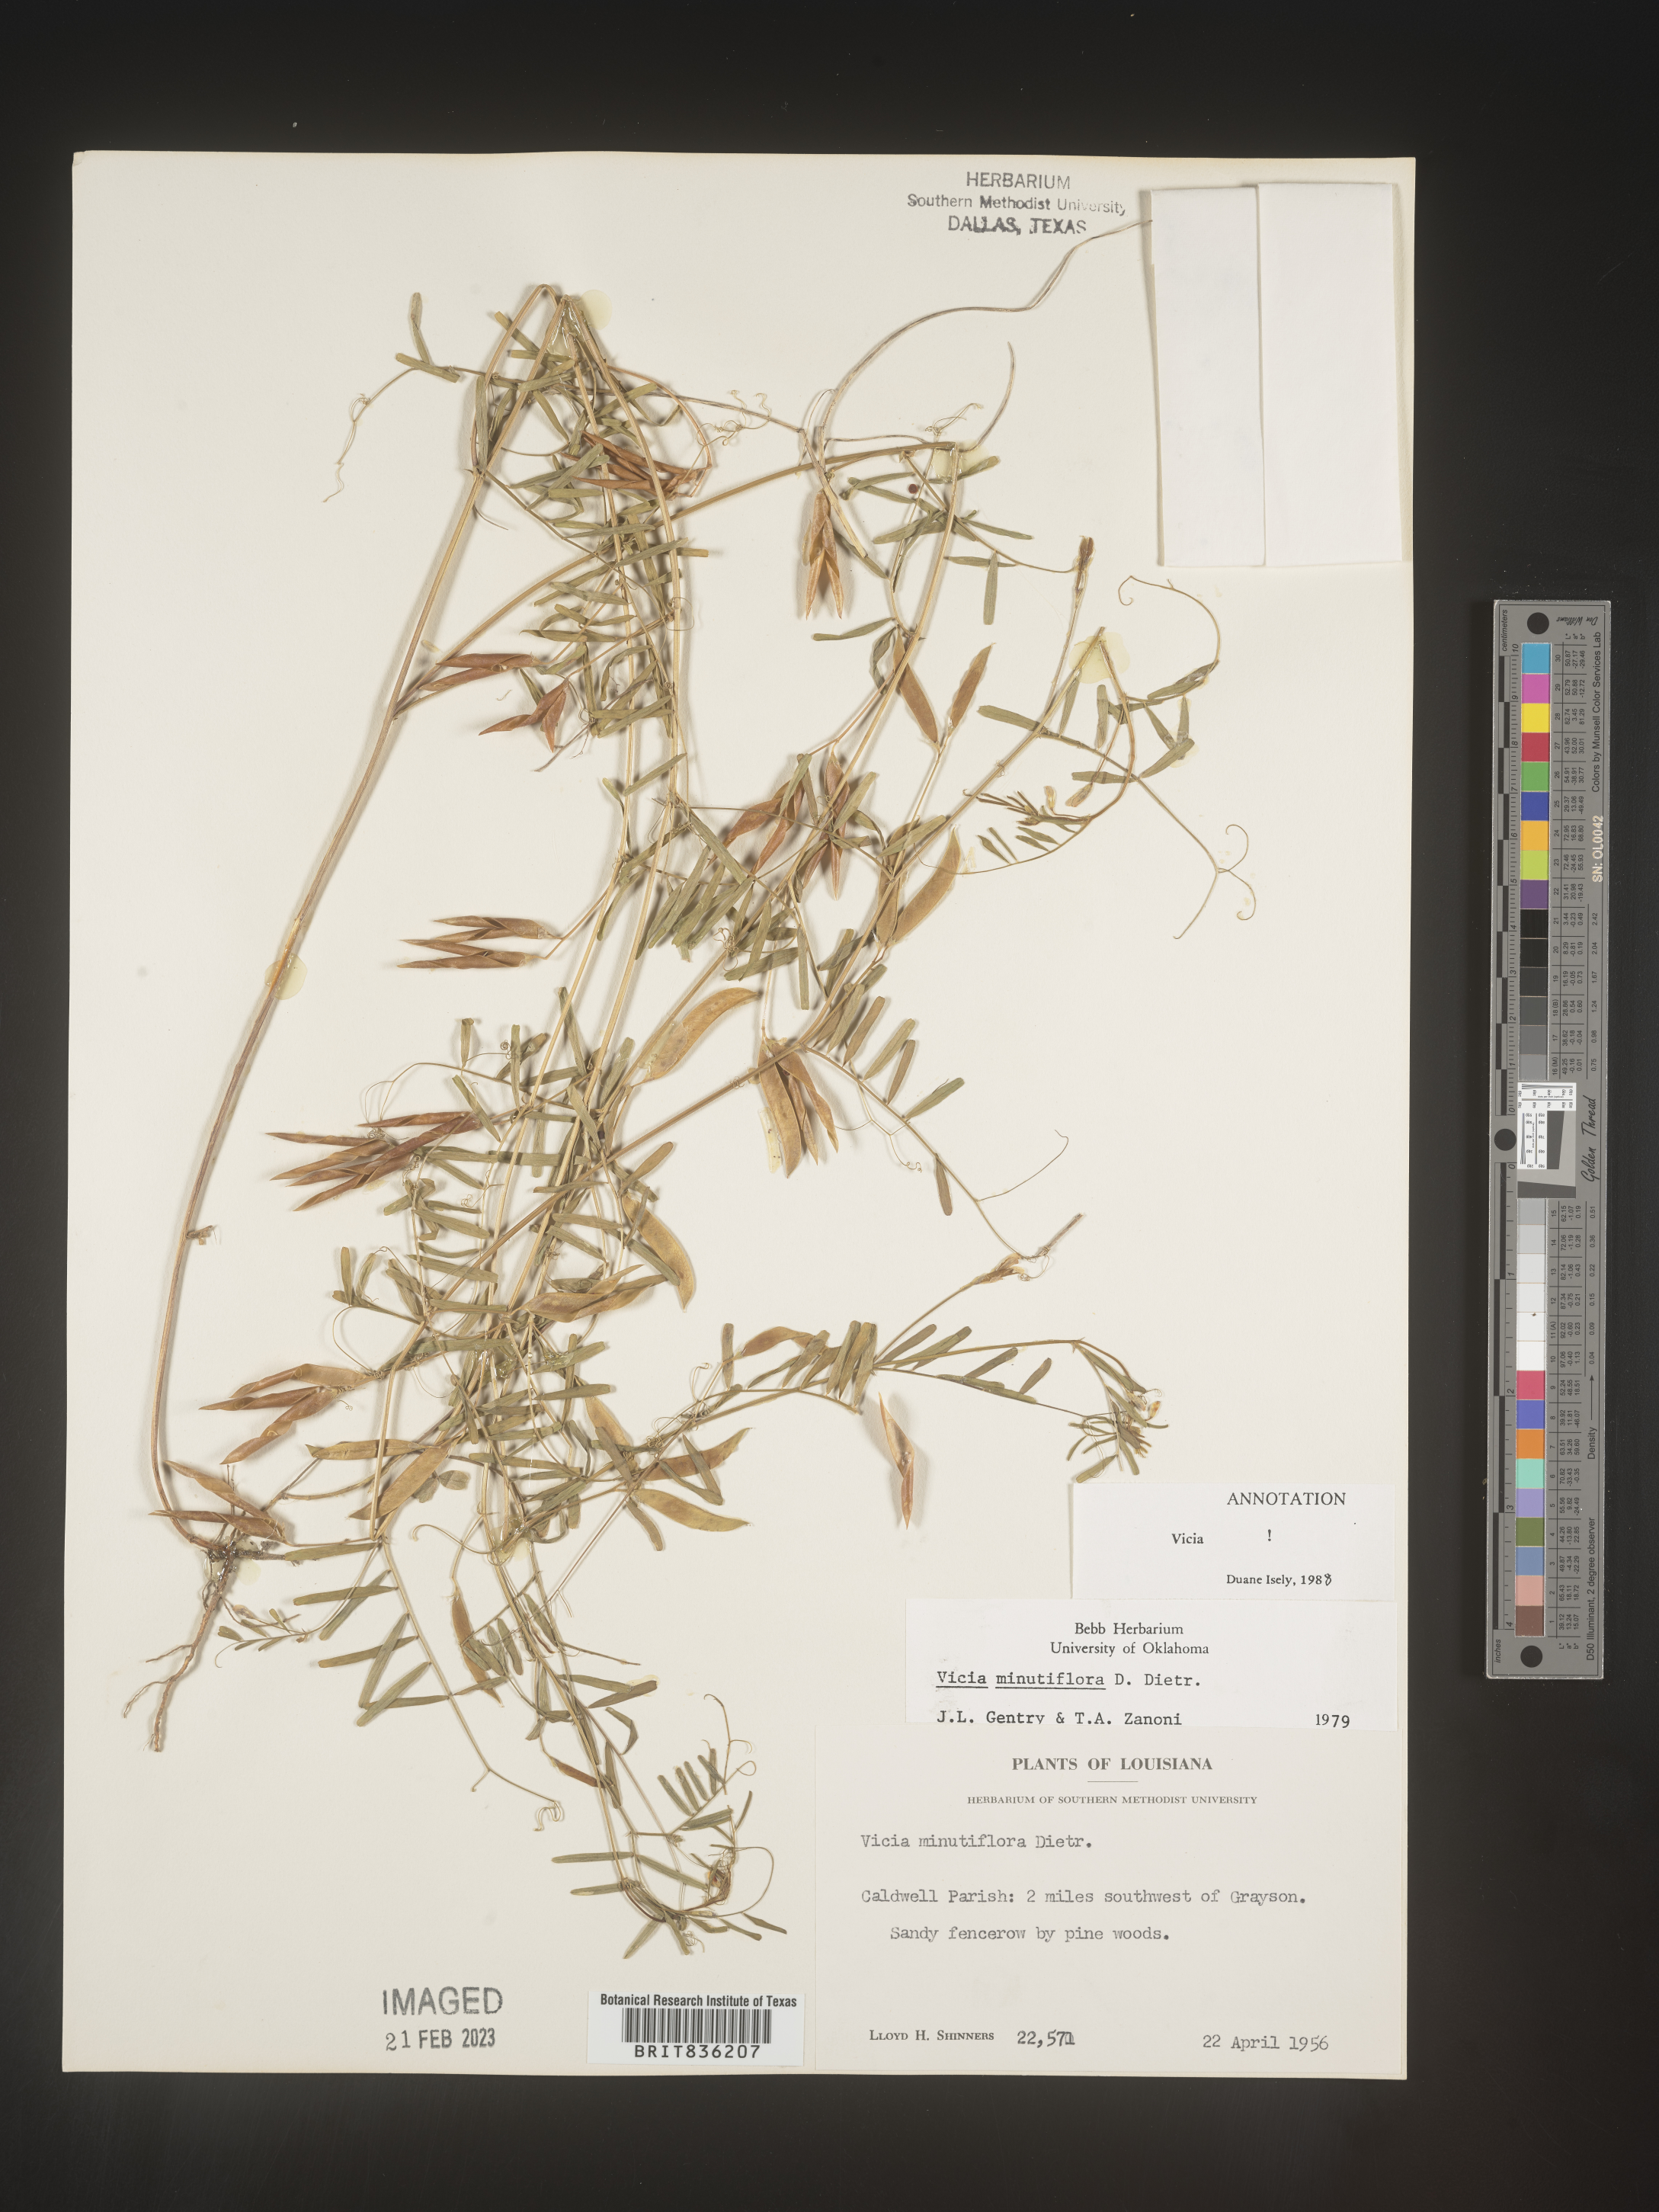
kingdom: Plantae
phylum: Tracheophyta
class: Magnoliopsida
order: Fabales
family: Fabaceae
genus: Vicia
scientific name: Vicia minutiflora
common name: Pygmy-flower vetch
